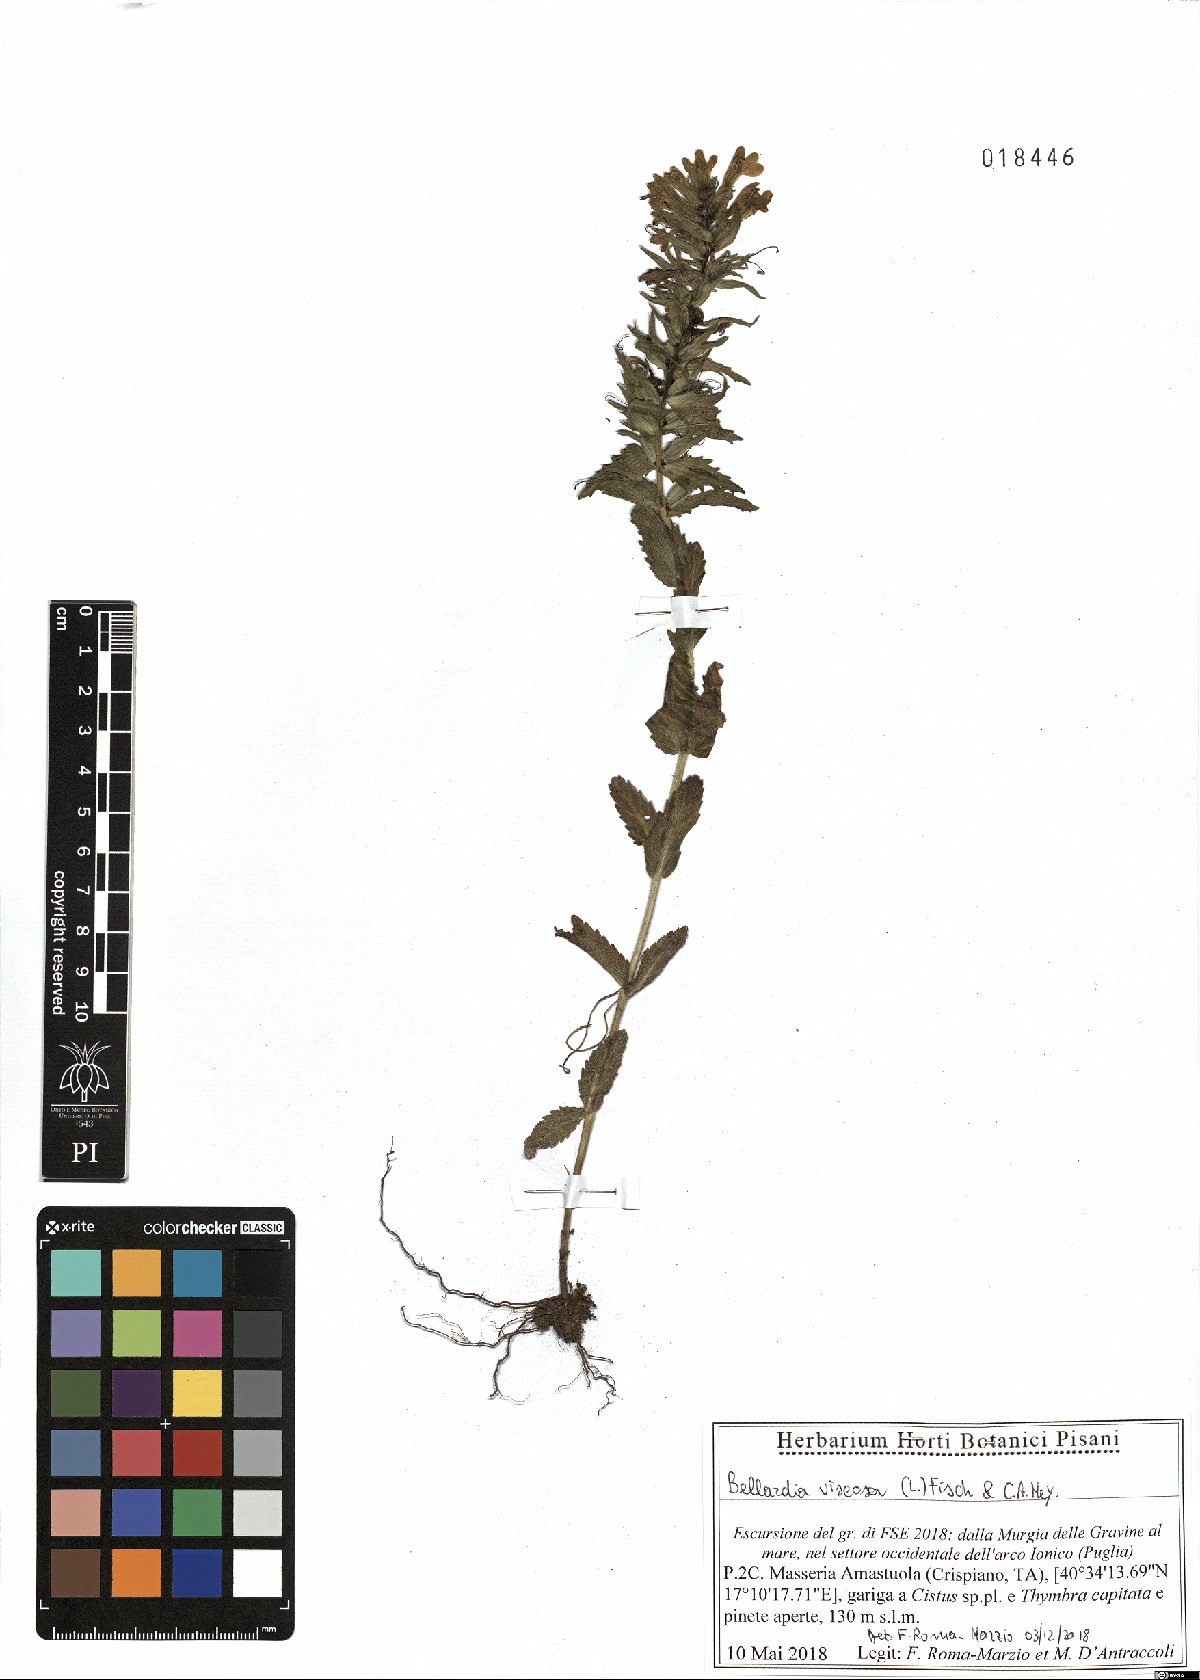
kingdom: Plantae
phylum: Tracheophyta
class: Magnoliopsida
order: Lamiales
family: Orobanchaceae
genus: Bellardia
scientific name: Bellardia viscosa
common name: Sticky parentucellia
